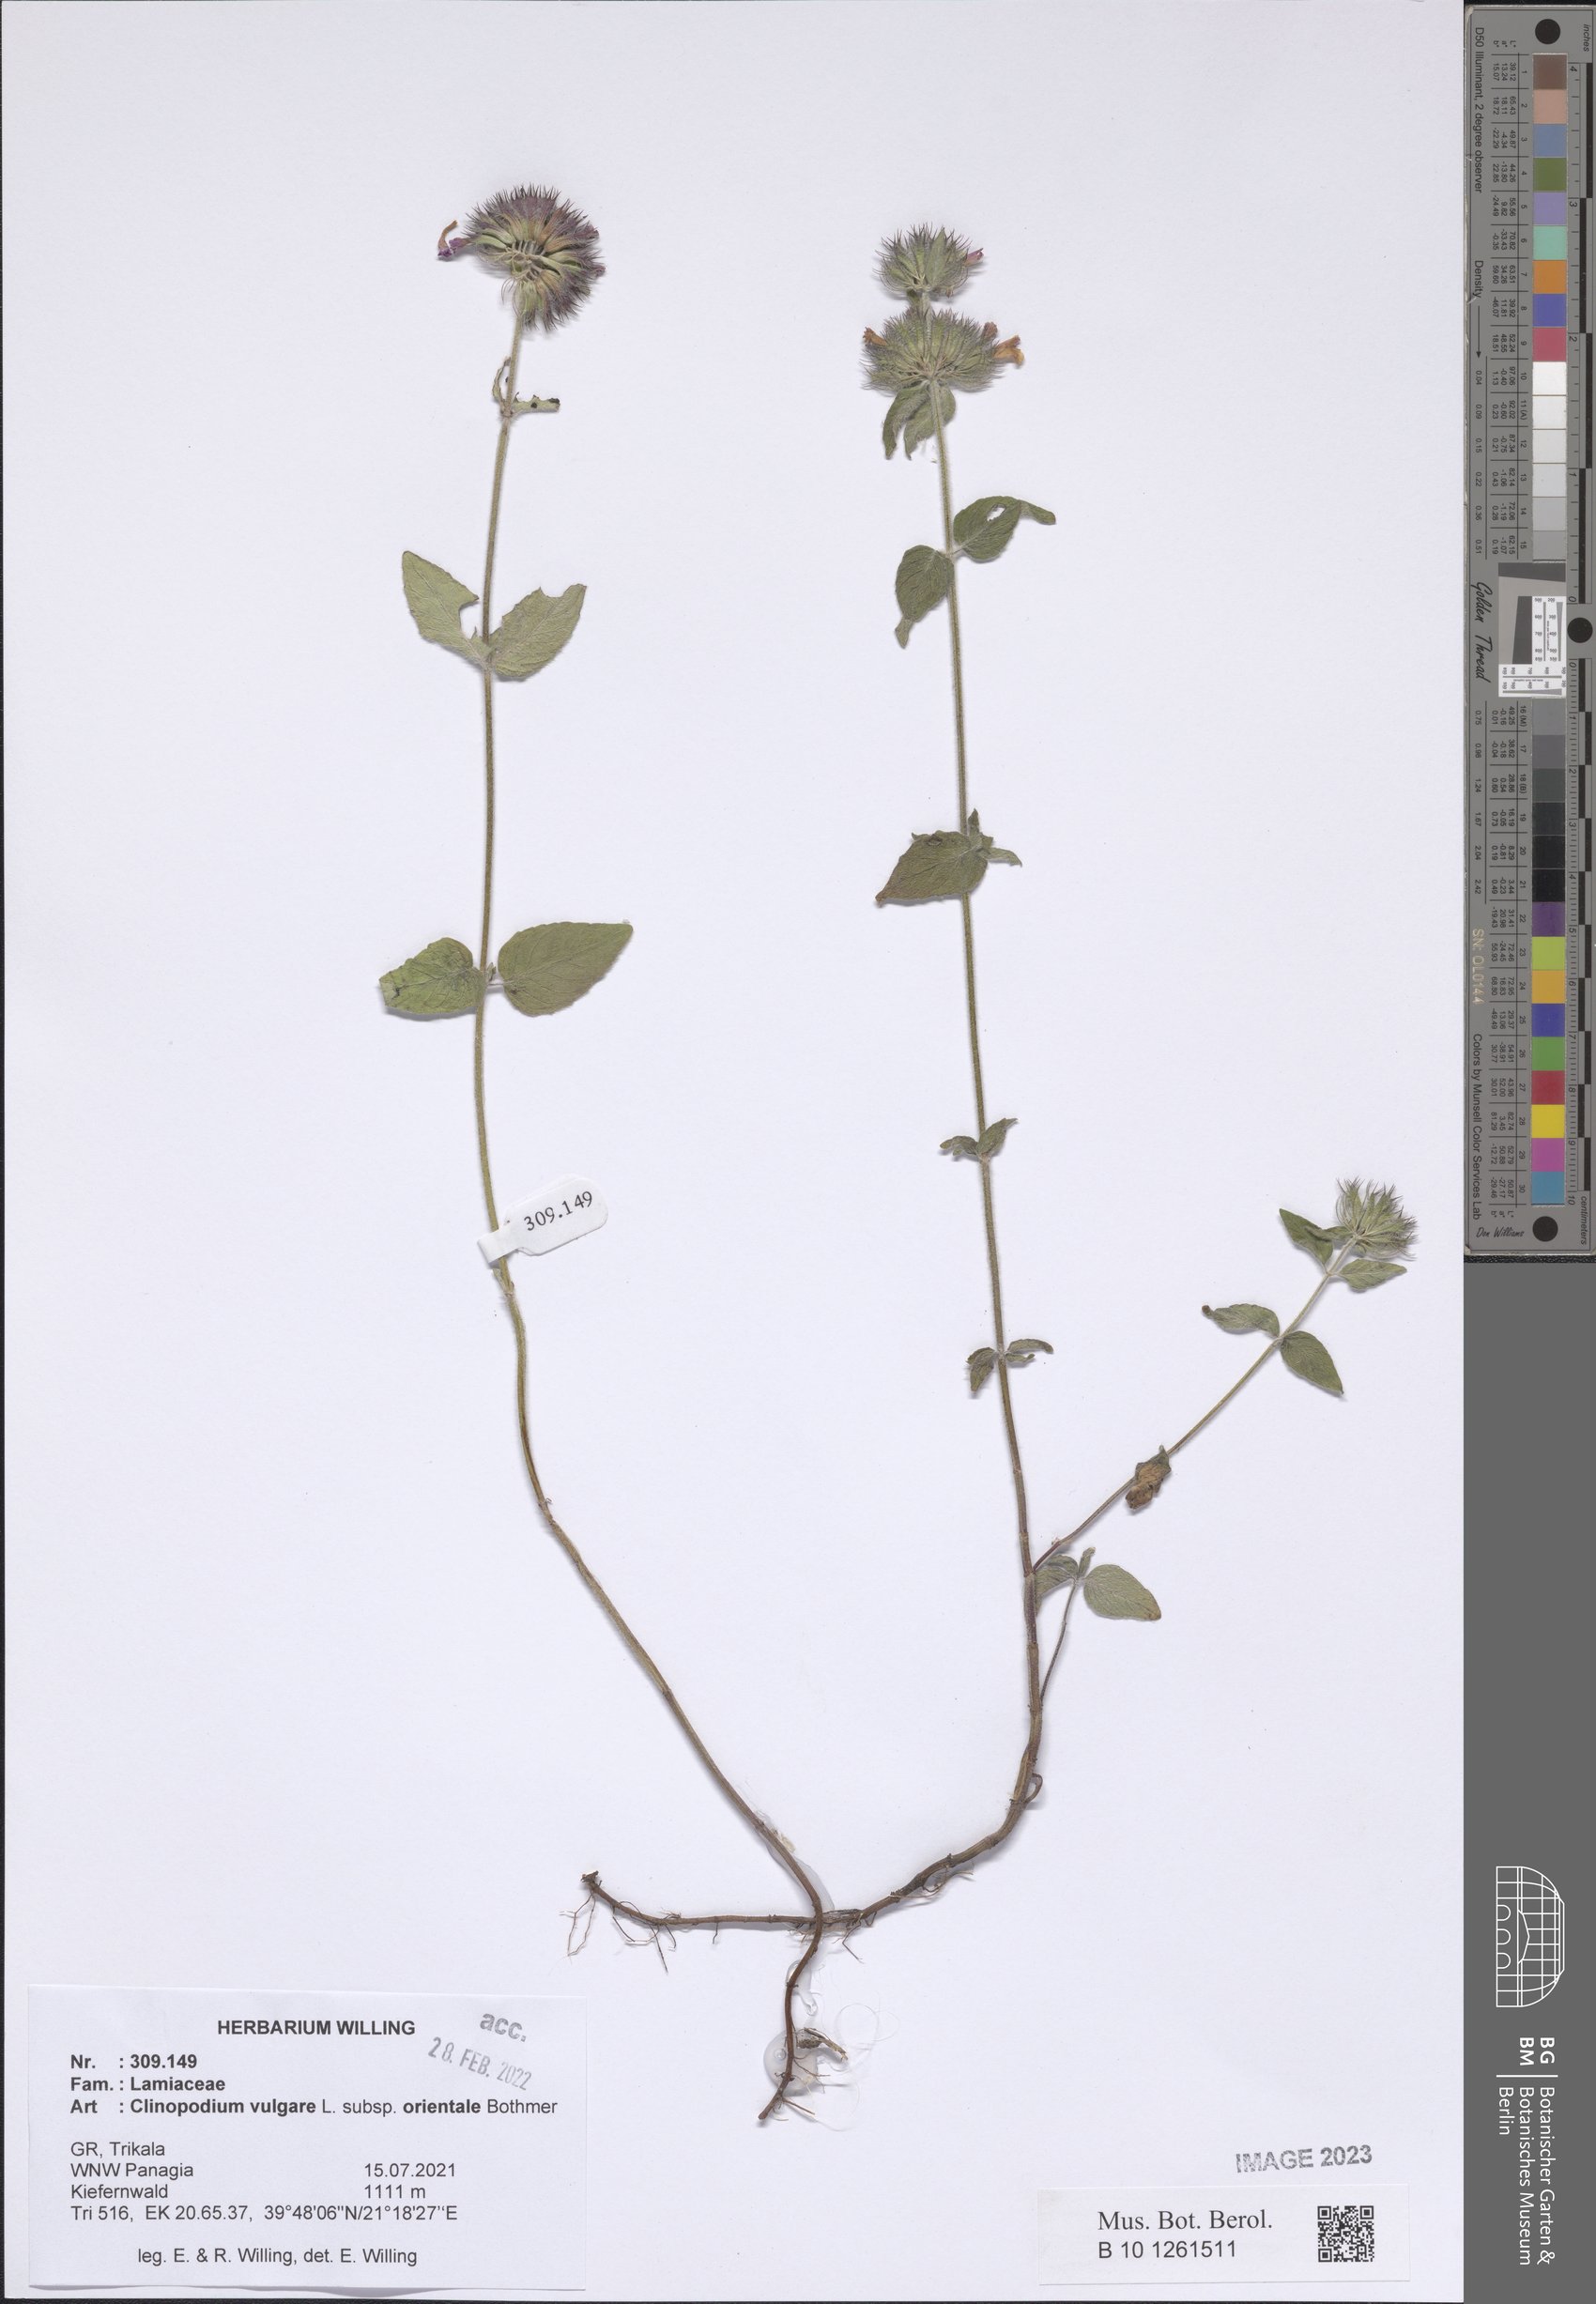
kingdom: Plantae
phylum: Tracheophyta
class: Magnoliopsida
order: Lamiales
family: Lamiaceae
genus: Clinopodium
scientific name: Clinopodium vulgare
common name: Wild basil
